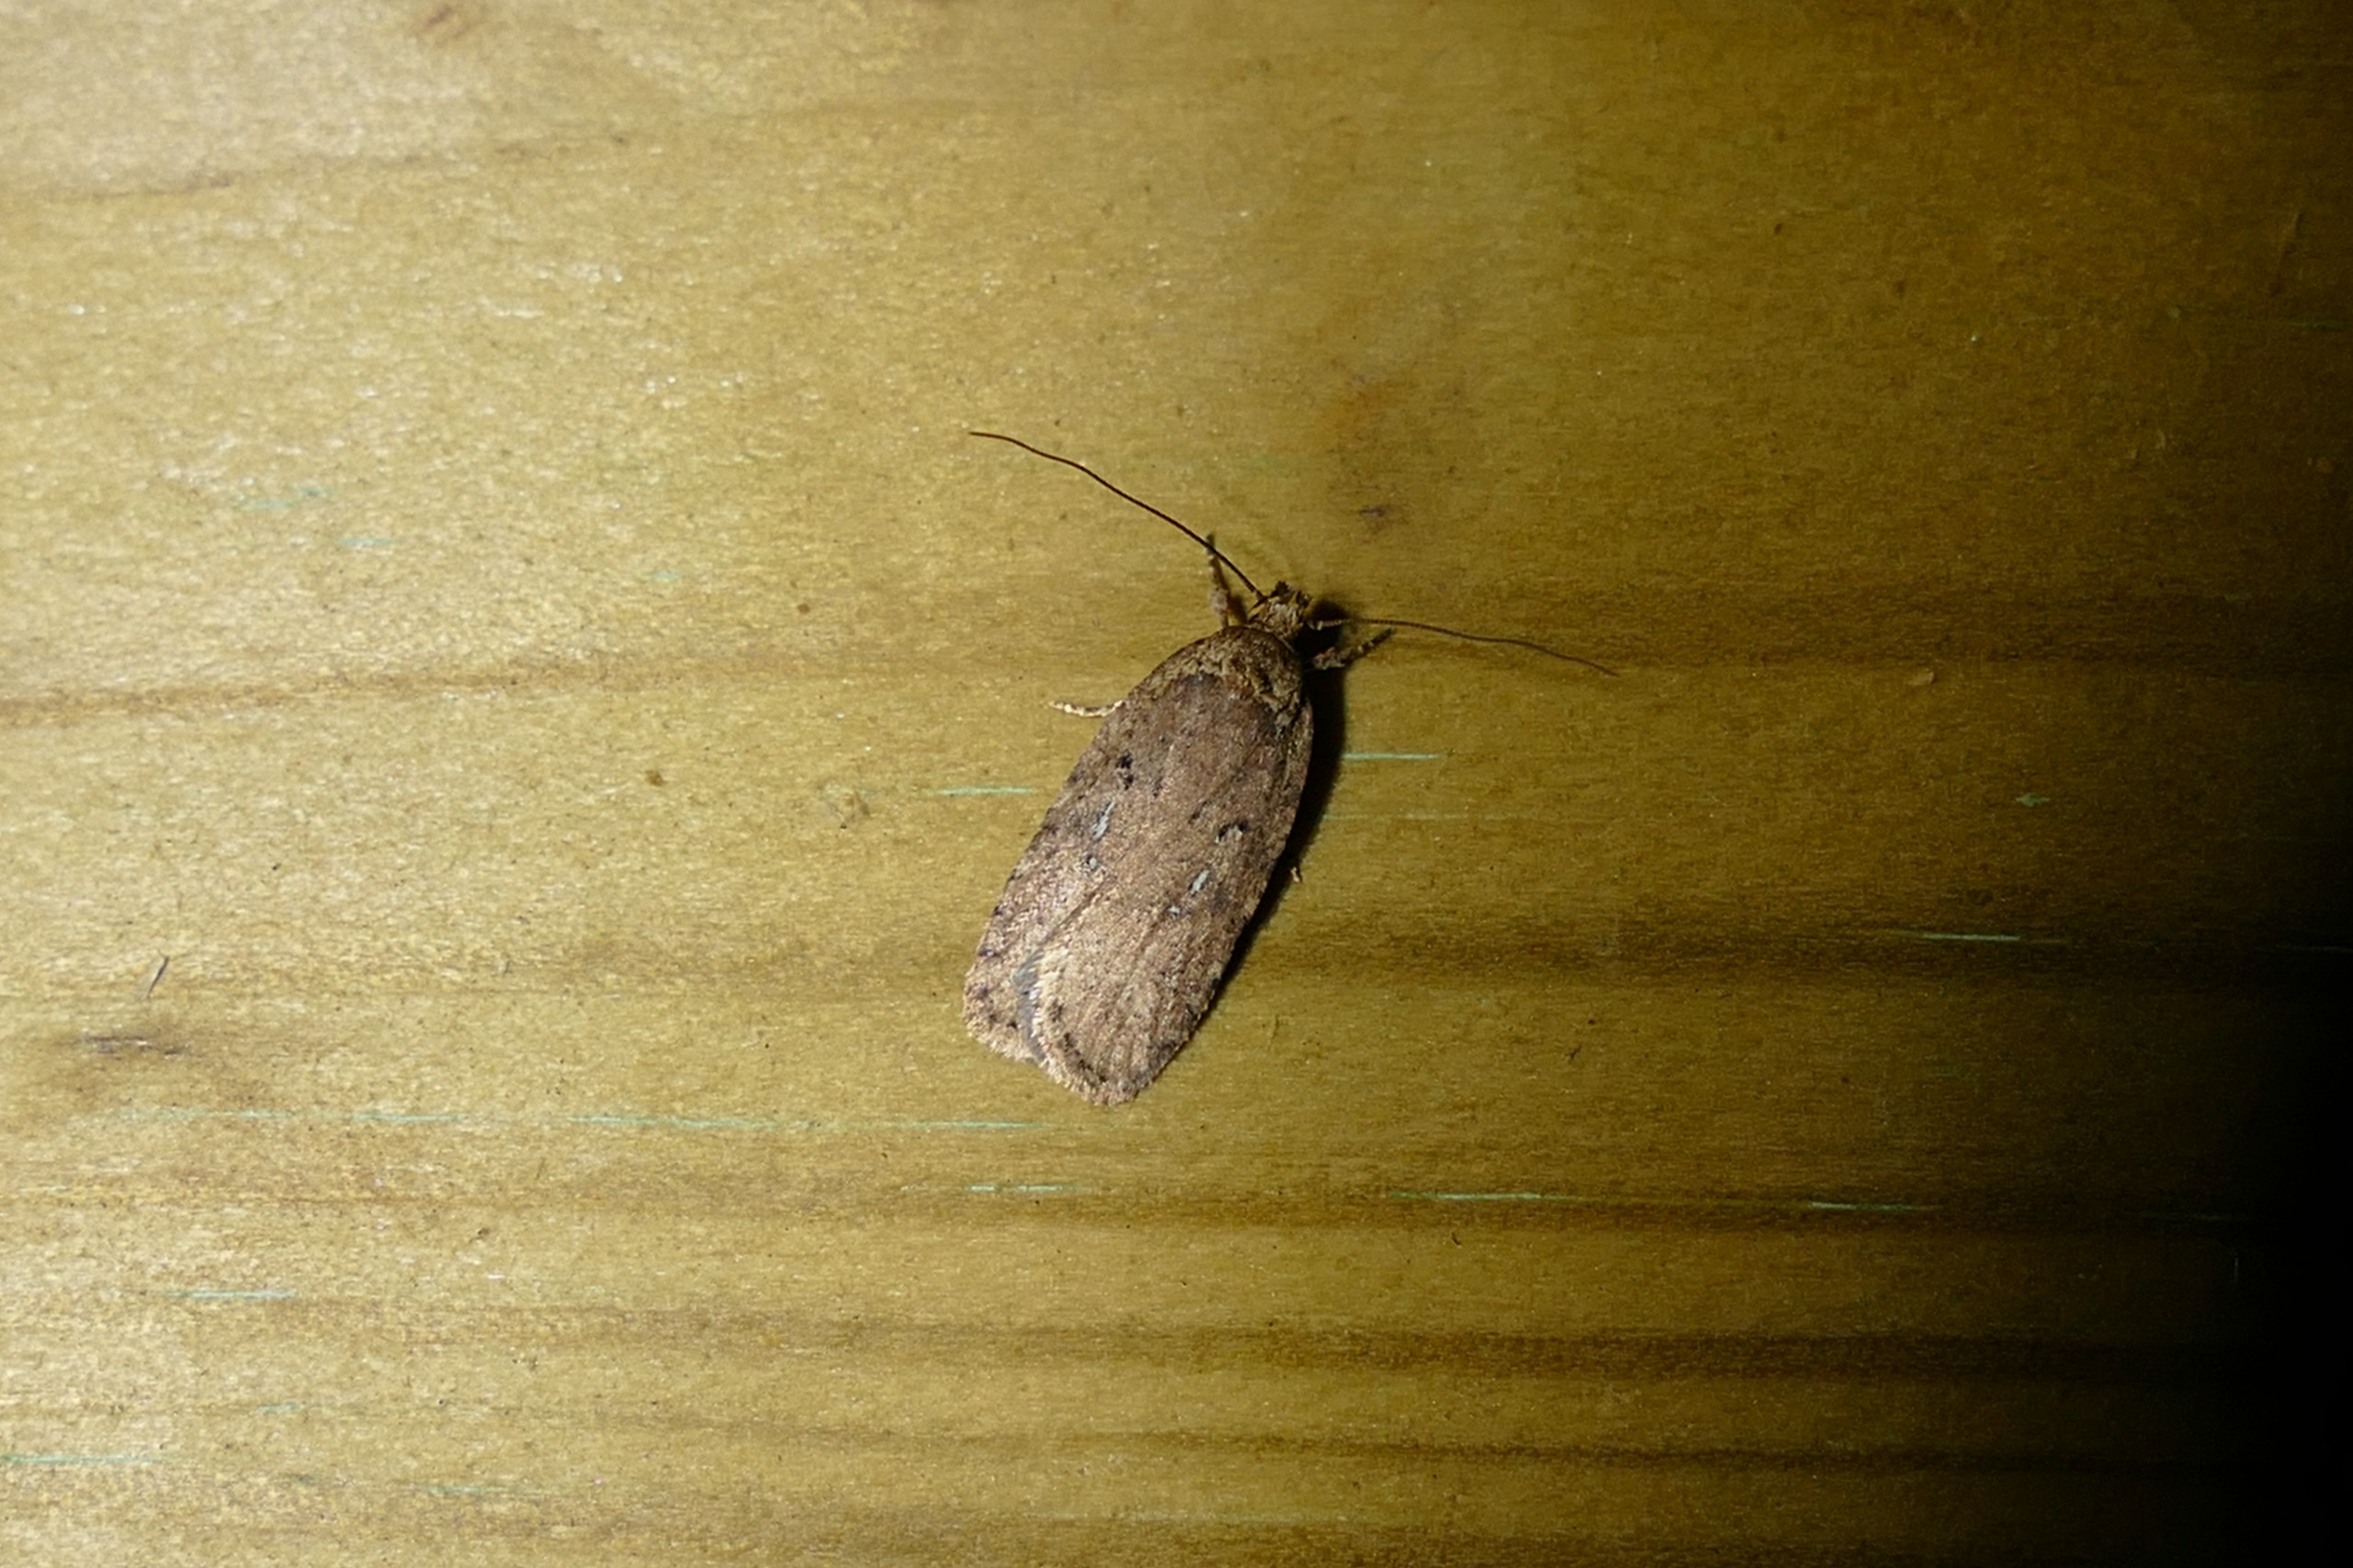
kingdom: Animalia
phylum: Arthropoda
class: Insecta
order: Lepidoptera
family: Depressariidae
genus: Agonopterix
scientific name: Agonopterix heracliana
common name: Almindelig fladmøl
